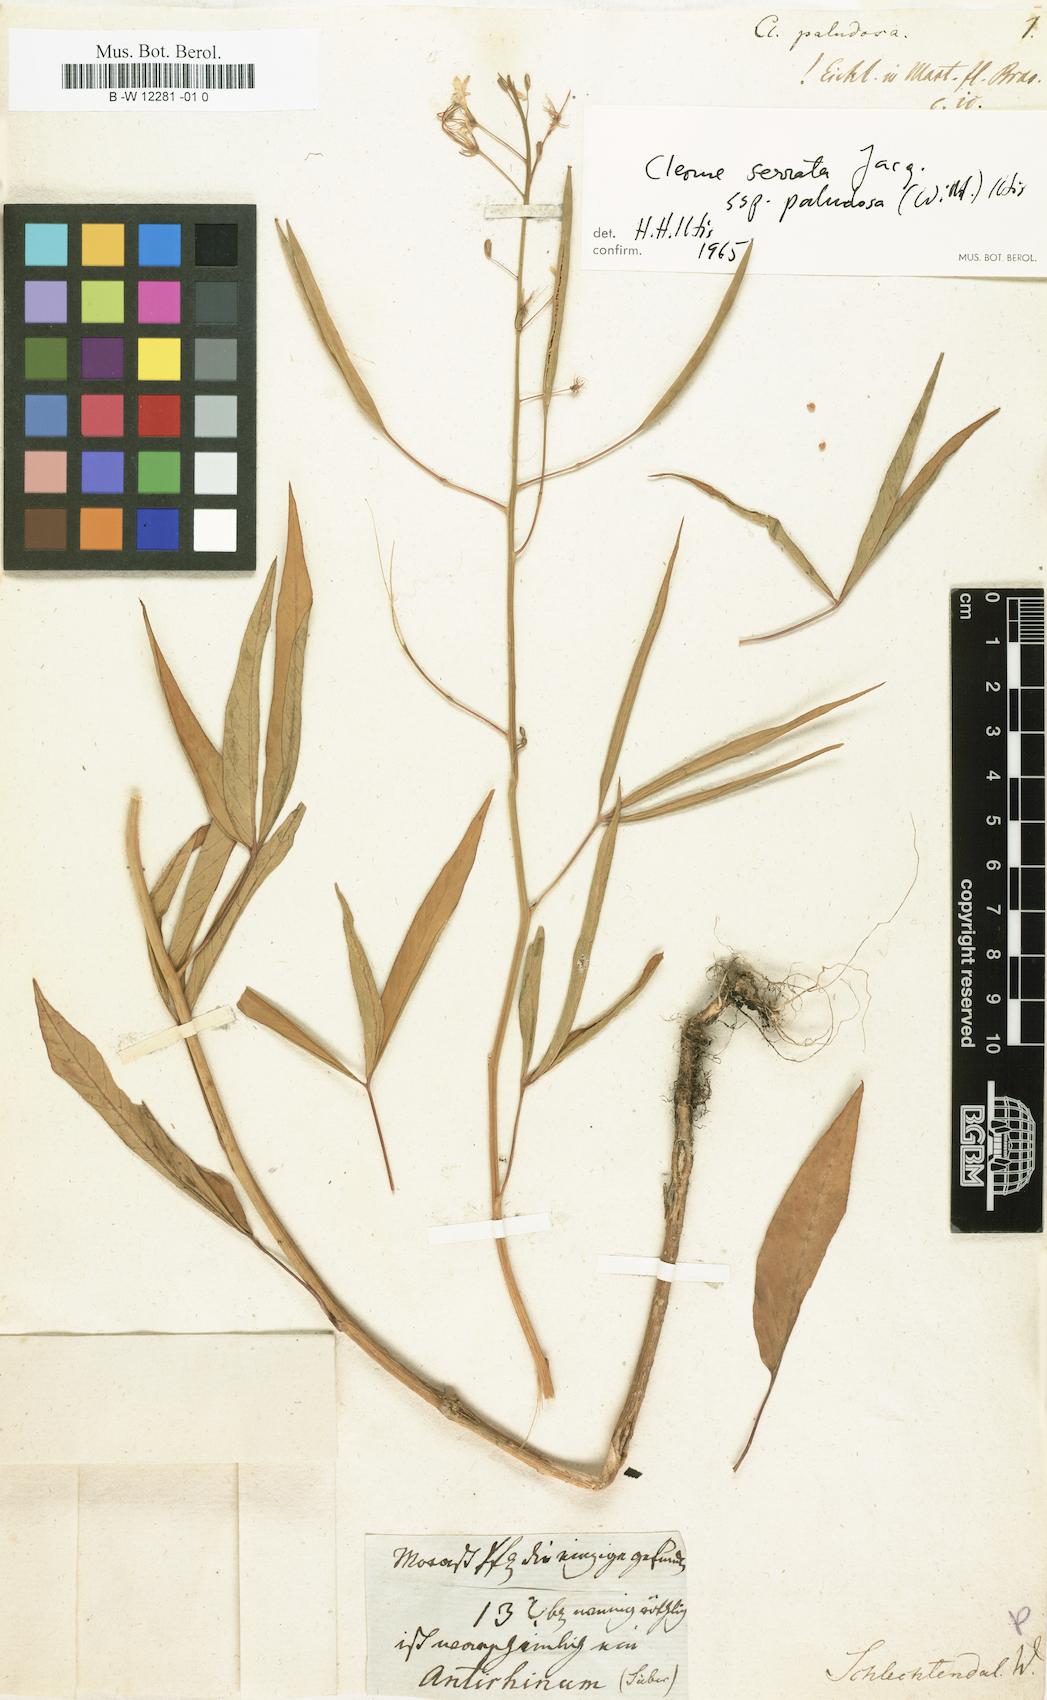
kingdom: Plantae
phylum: Tracheophyta
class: Magnoliopsida
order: Brassicales
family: Cleomaceae
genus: Cleoserrata
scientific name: Cleoserrata paludosa
